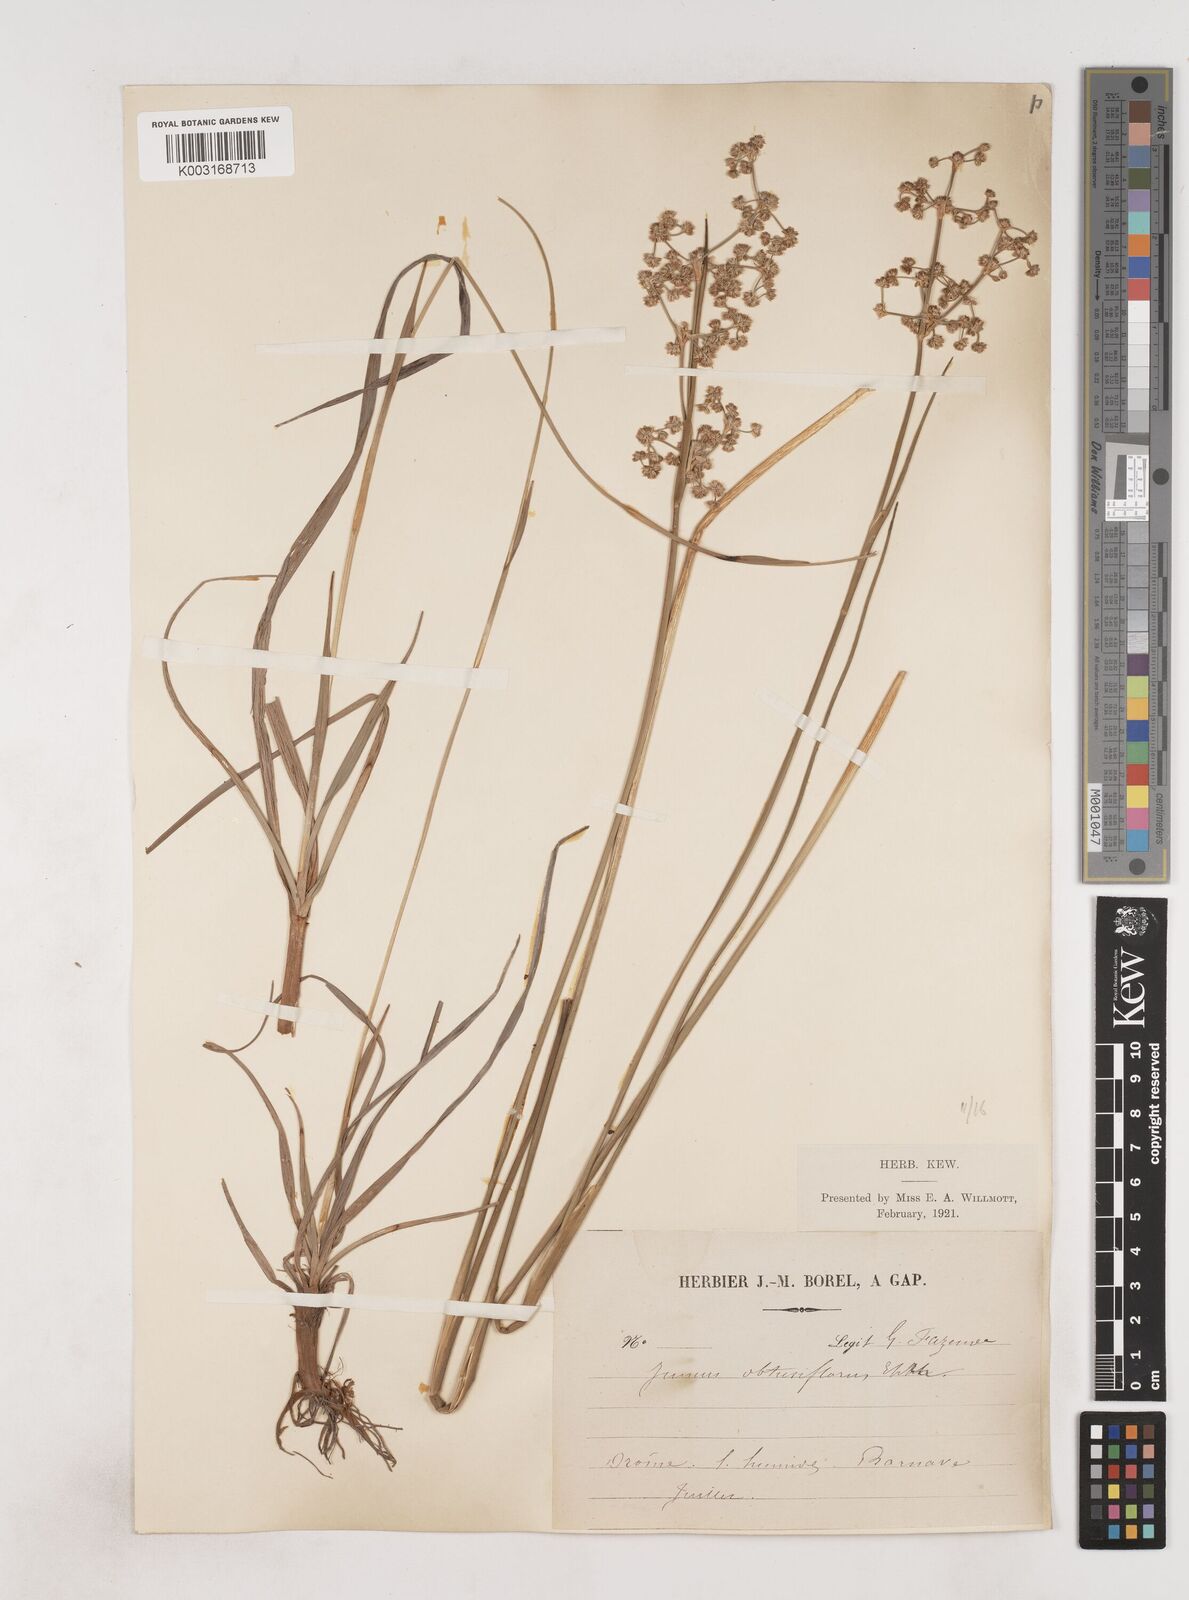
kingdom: Plantae
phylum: Tracheophyta
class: Liliopsida
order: Poales
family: Juncaceae
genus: Juncus
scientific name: Juncus subnodulosus
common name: Blunt-flowered rush
